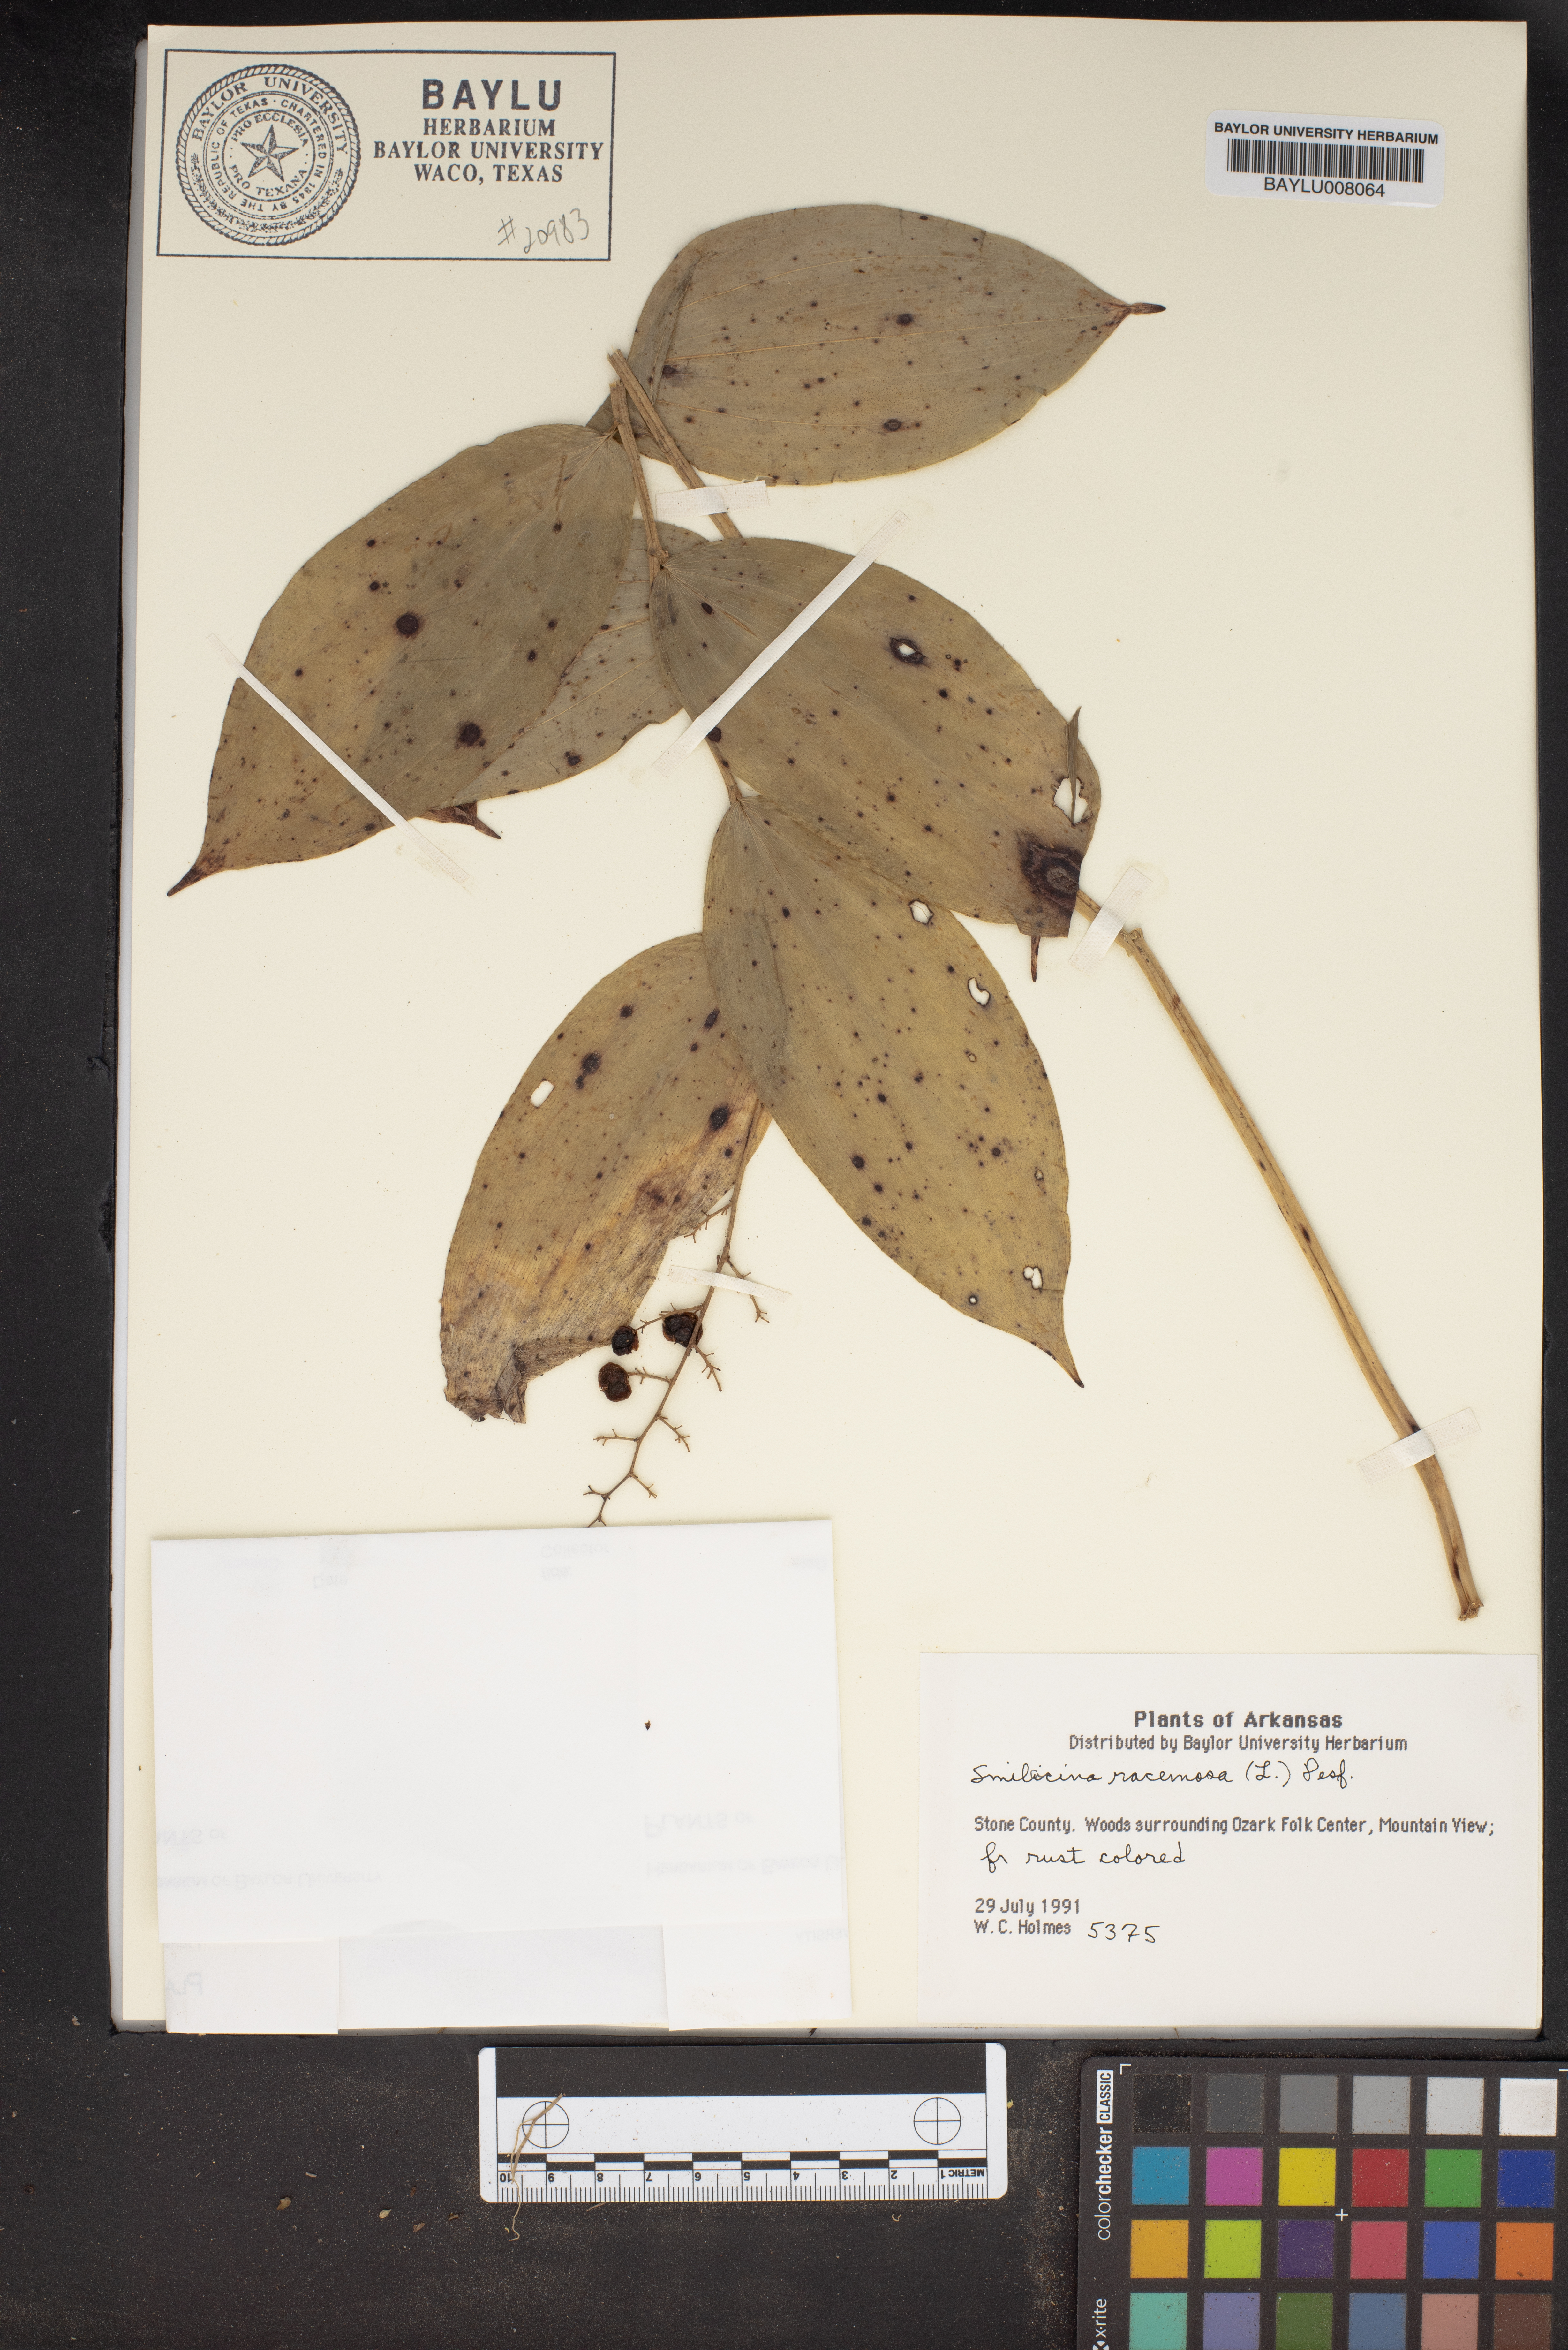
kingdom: Plantae
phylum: Tracheophyta
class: Liliopsida
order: Asparagales
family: Asparagaceae
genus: Maianthemum
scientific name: Maianthemum racemosum
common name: False spikenard
